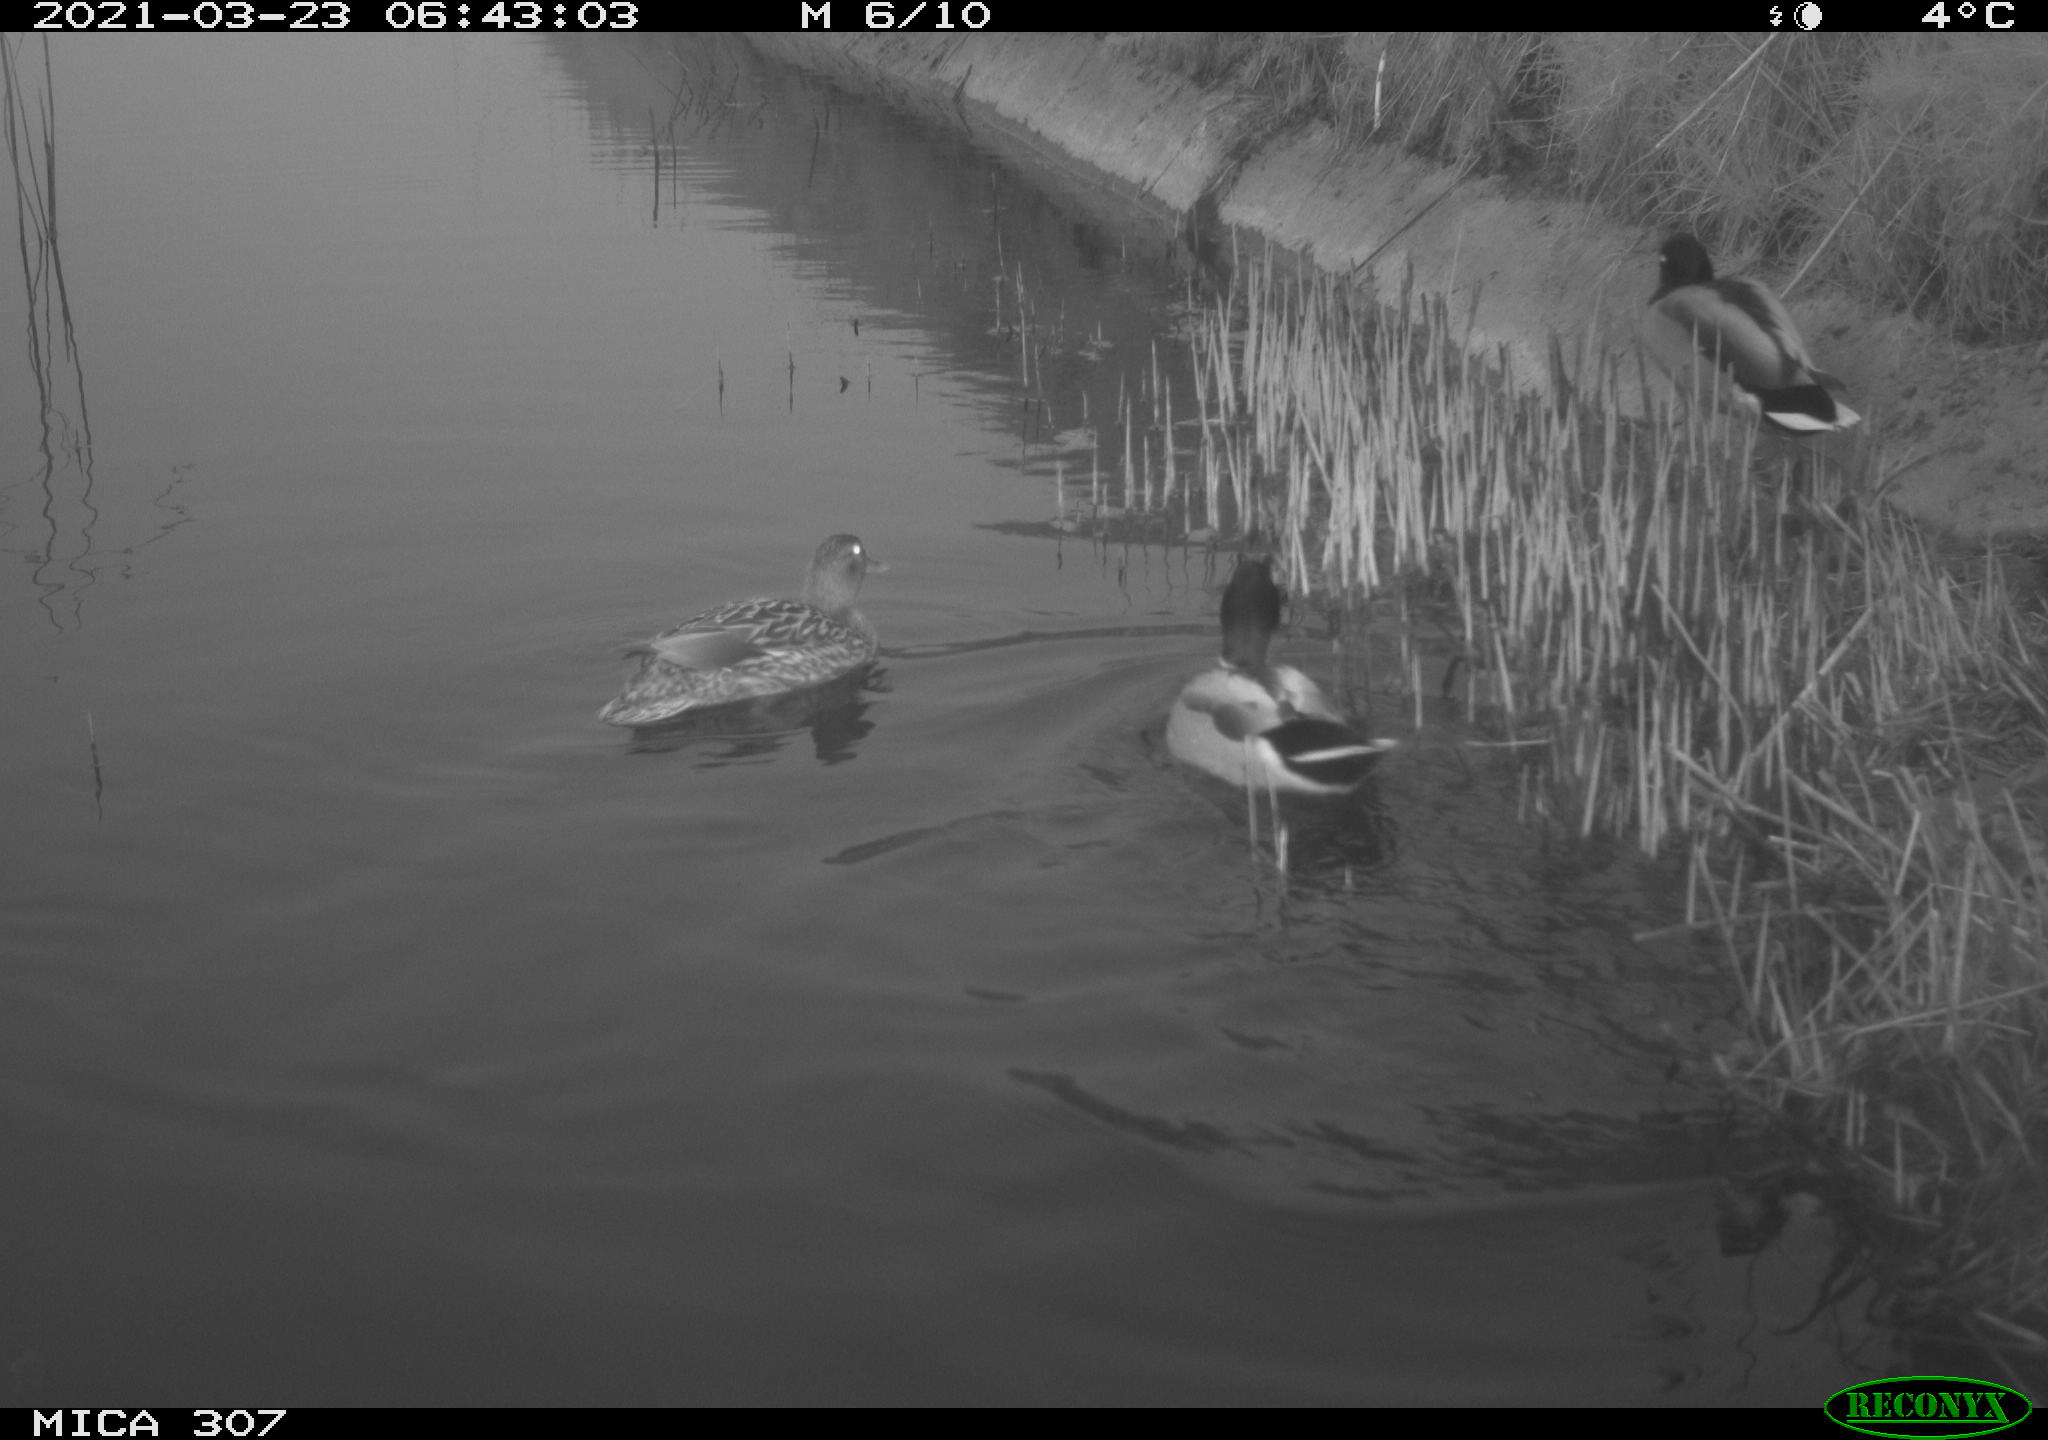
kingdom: Animalia
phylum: Chordata
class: Aves
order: Anseriformes
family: Anatidae
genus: Anas
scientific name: Anas platyrhynchos
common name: Mallard
